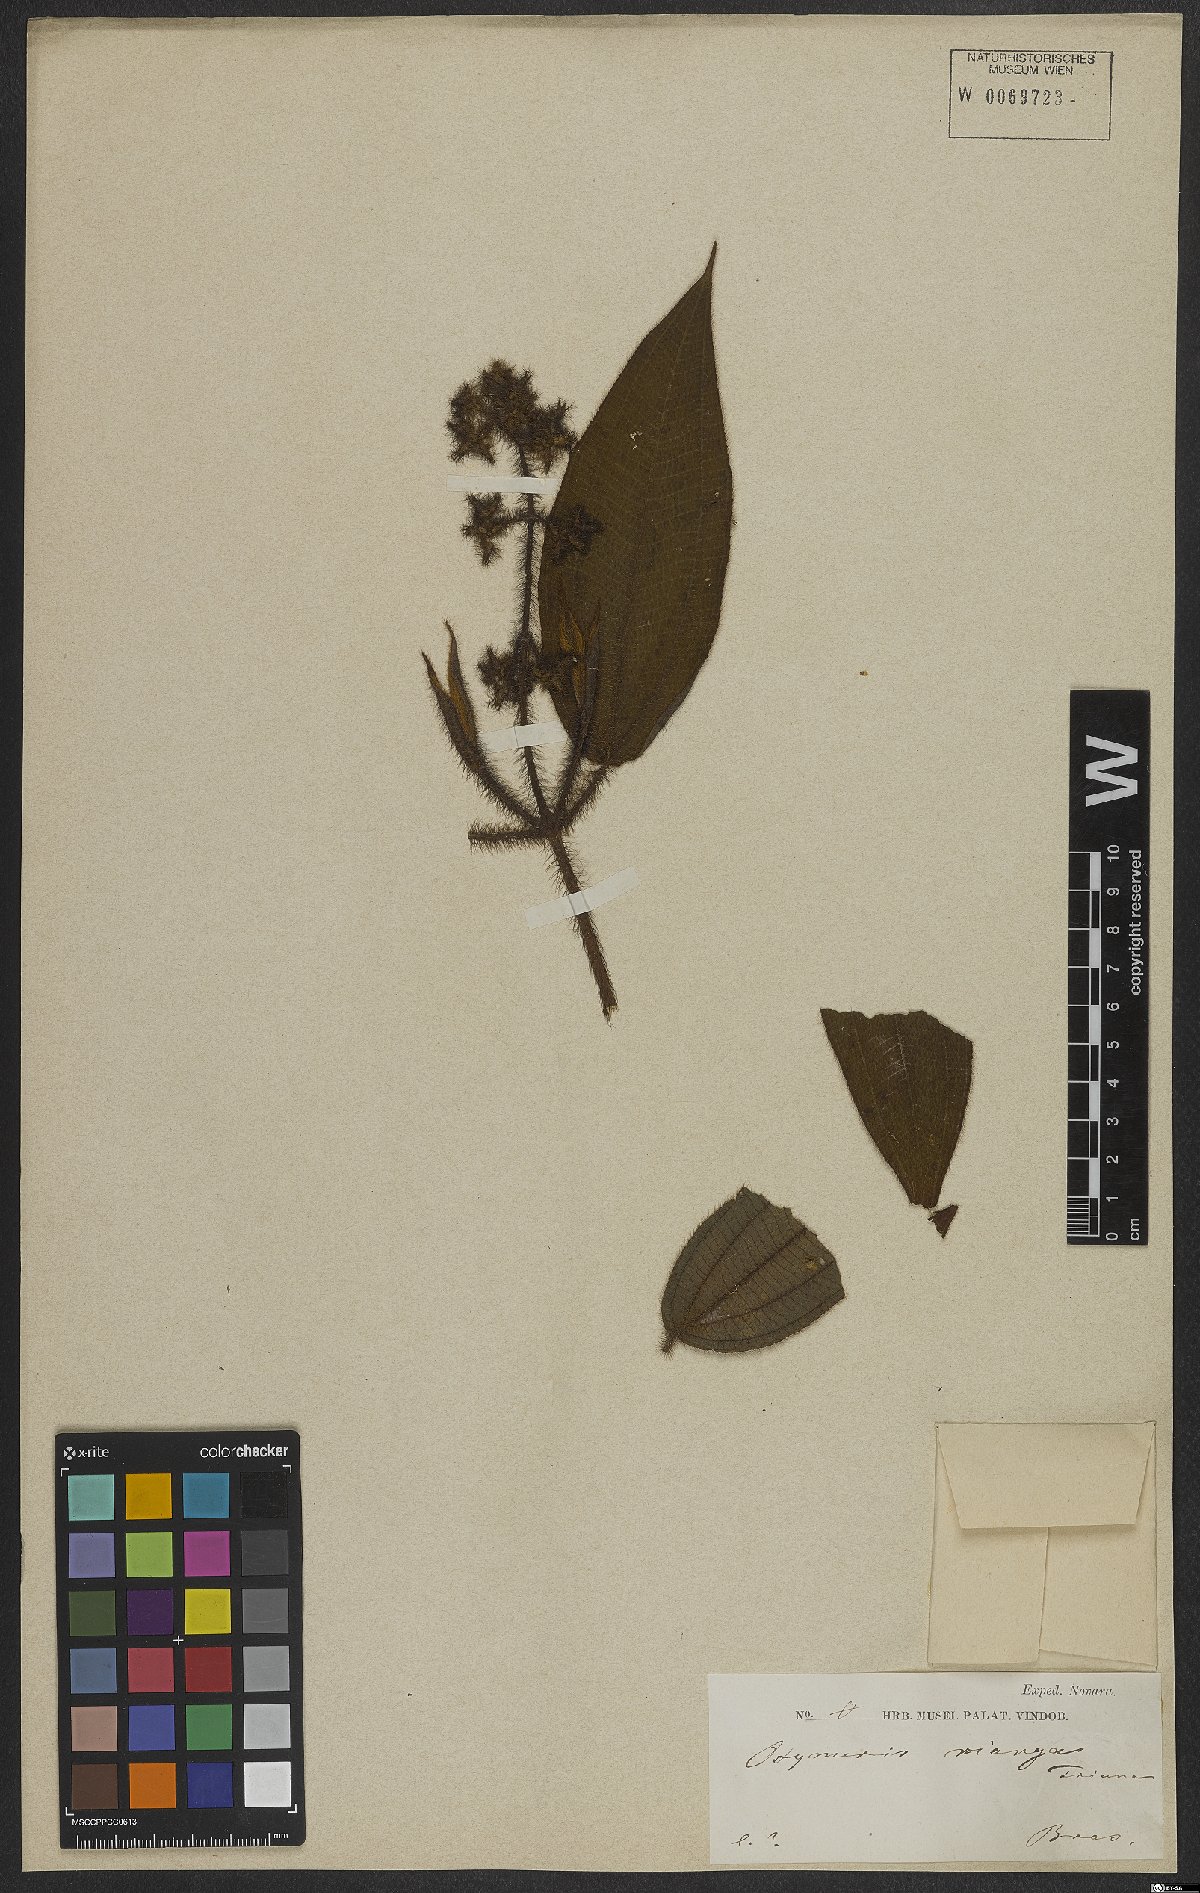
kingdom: Plantae
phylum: Tracheophyta
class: Magnoliopsida
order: Myrtales
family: Melastomataceae
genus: Miconia
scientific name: Miconia nianga
